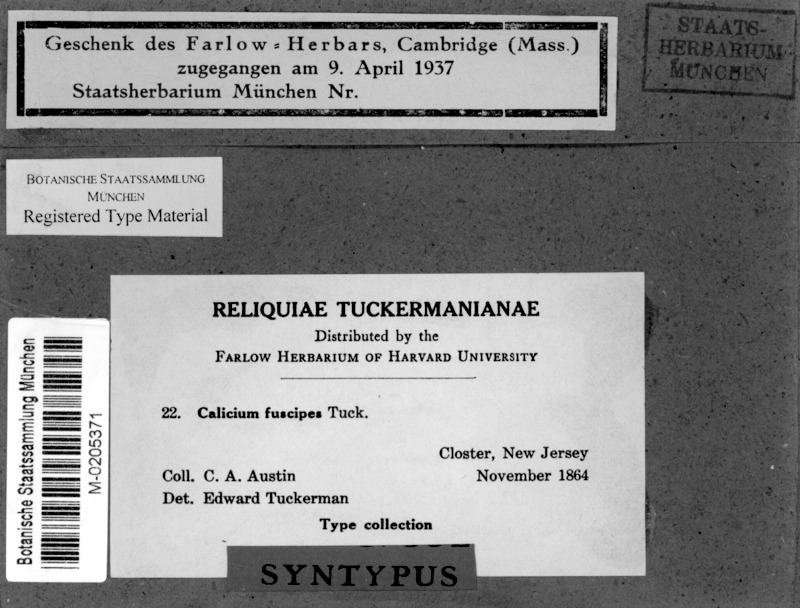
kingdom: Fungi
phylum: Ascomycota
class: Eurotiomycetes
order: Mycocaliciales
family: Mycocaliciaceae
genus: Mycocalicium
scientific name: Mycocalicium fuscipes
